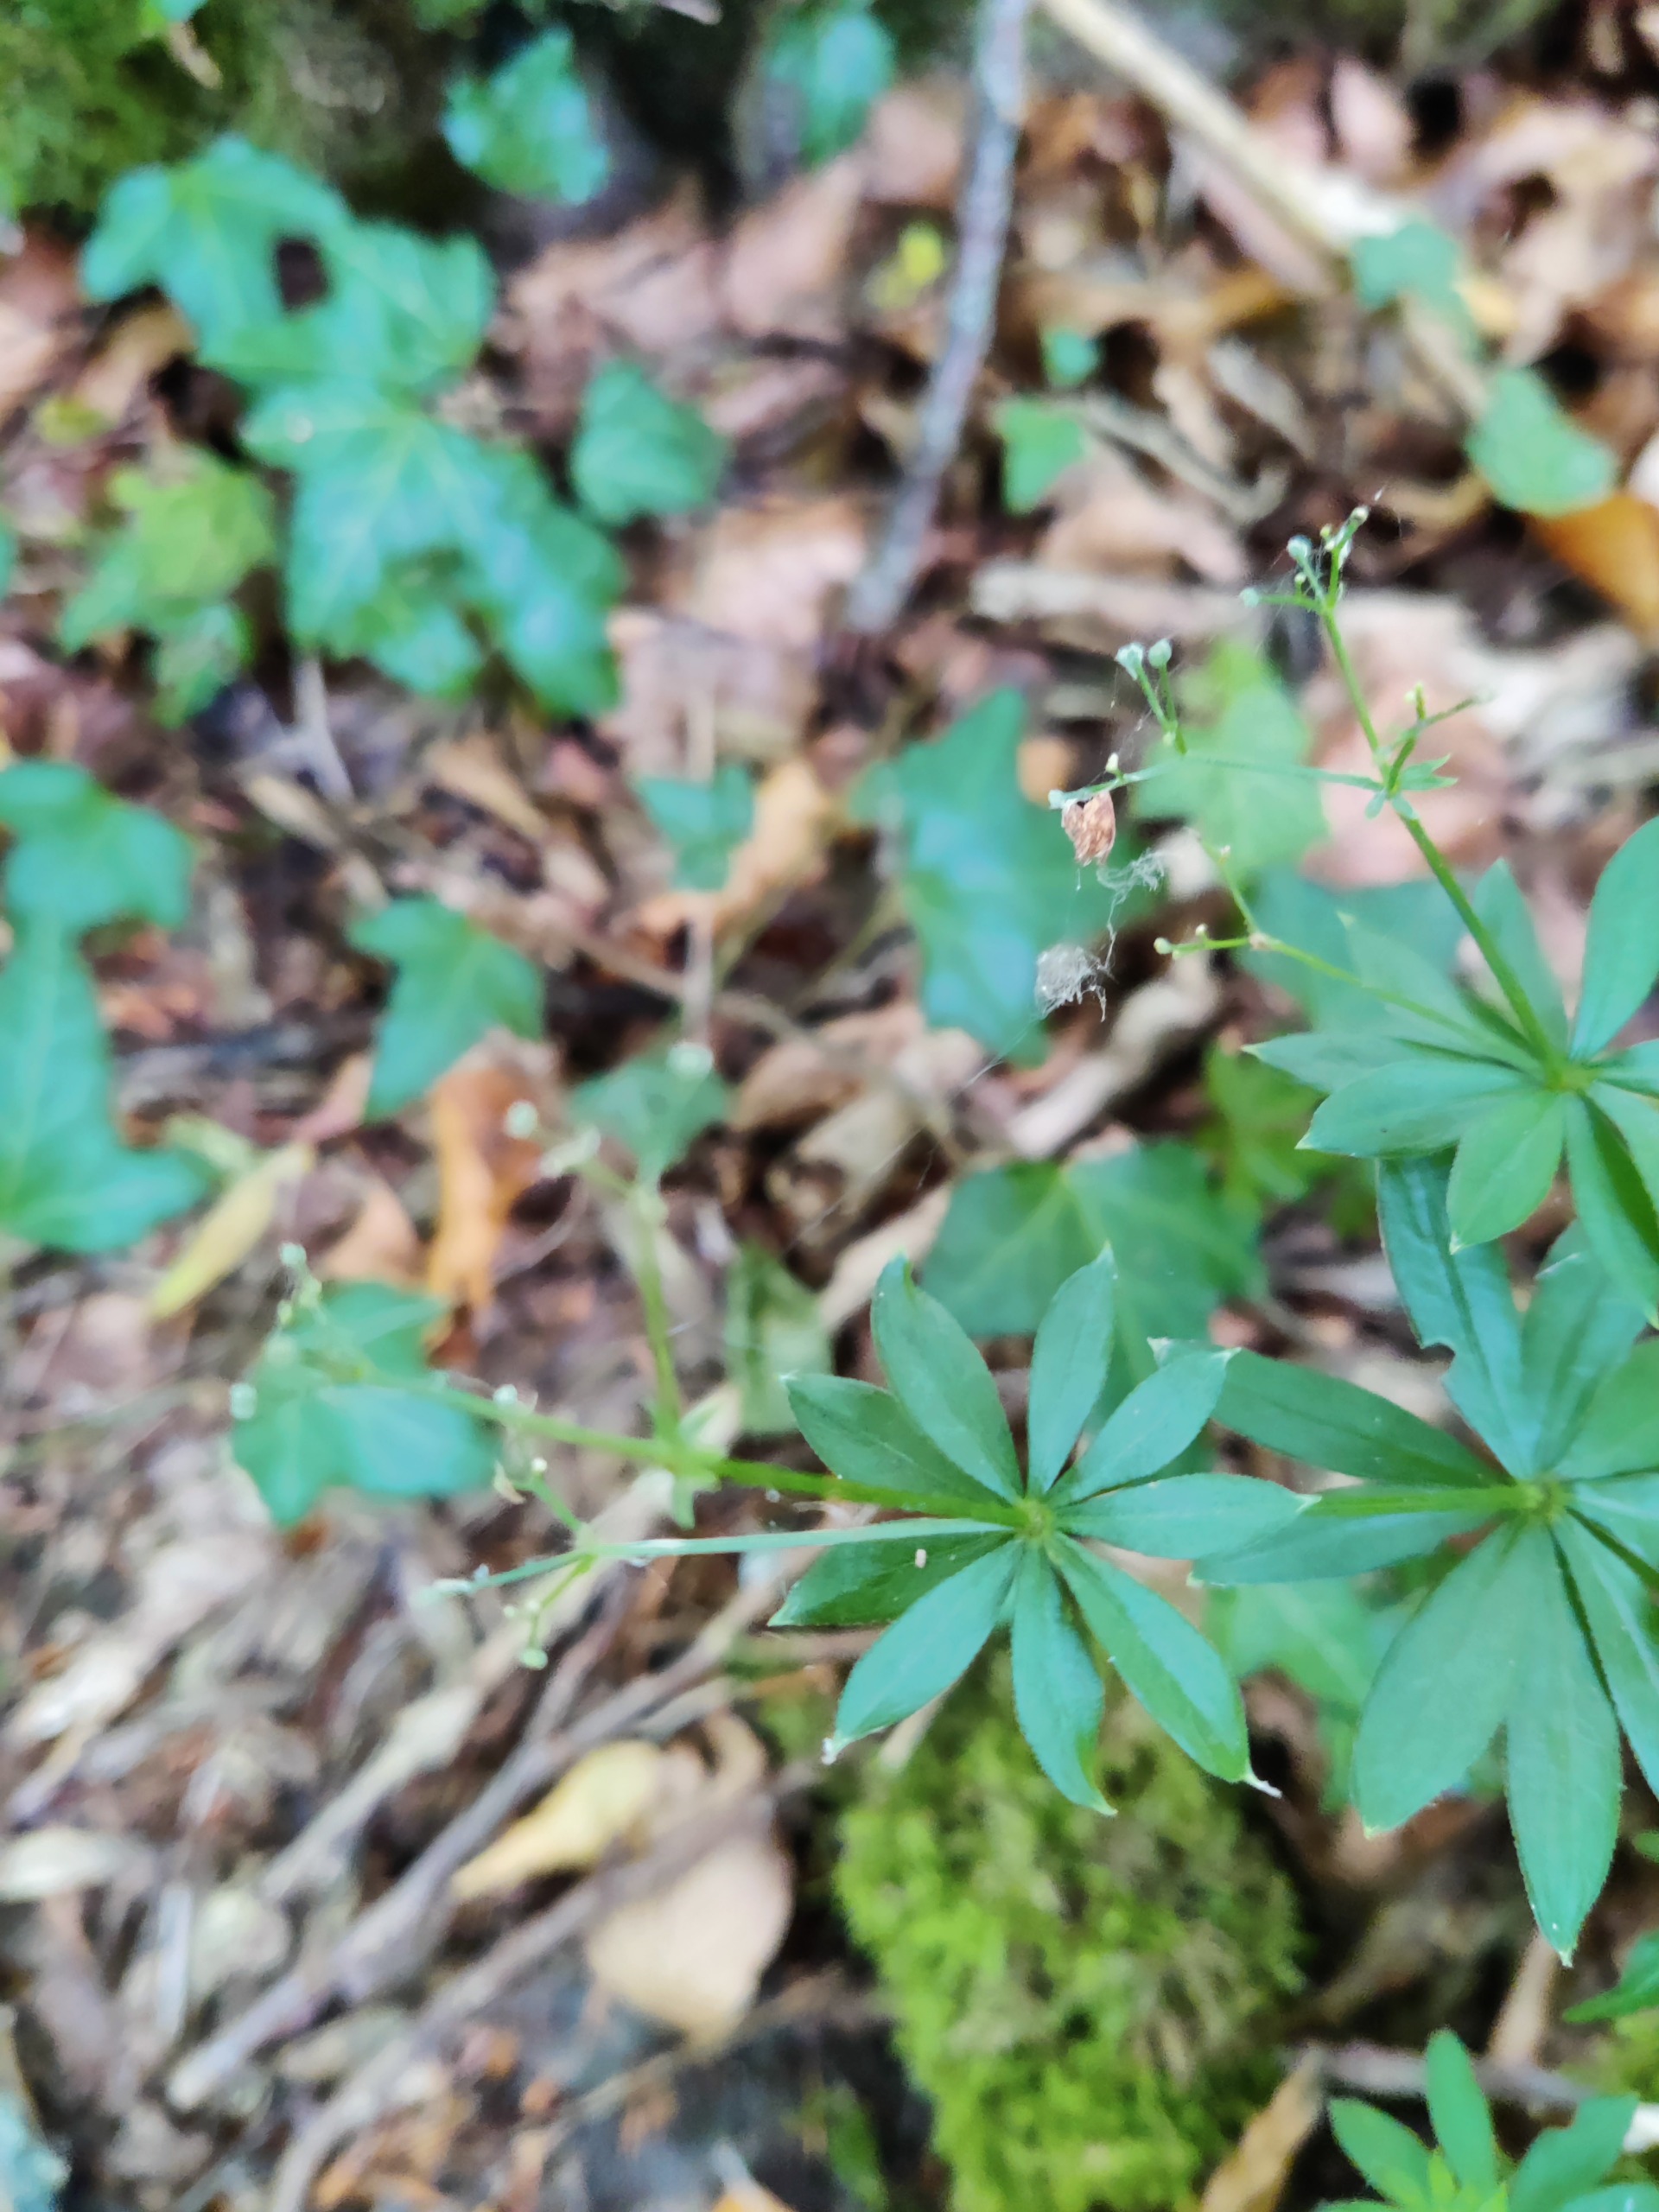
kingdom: Plantae
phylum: Tracheophyta
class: Magnoliopsida
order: Gentianales
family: Rubiaceae
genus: Galium
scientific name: Galium odoratum
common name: Skovmærke
